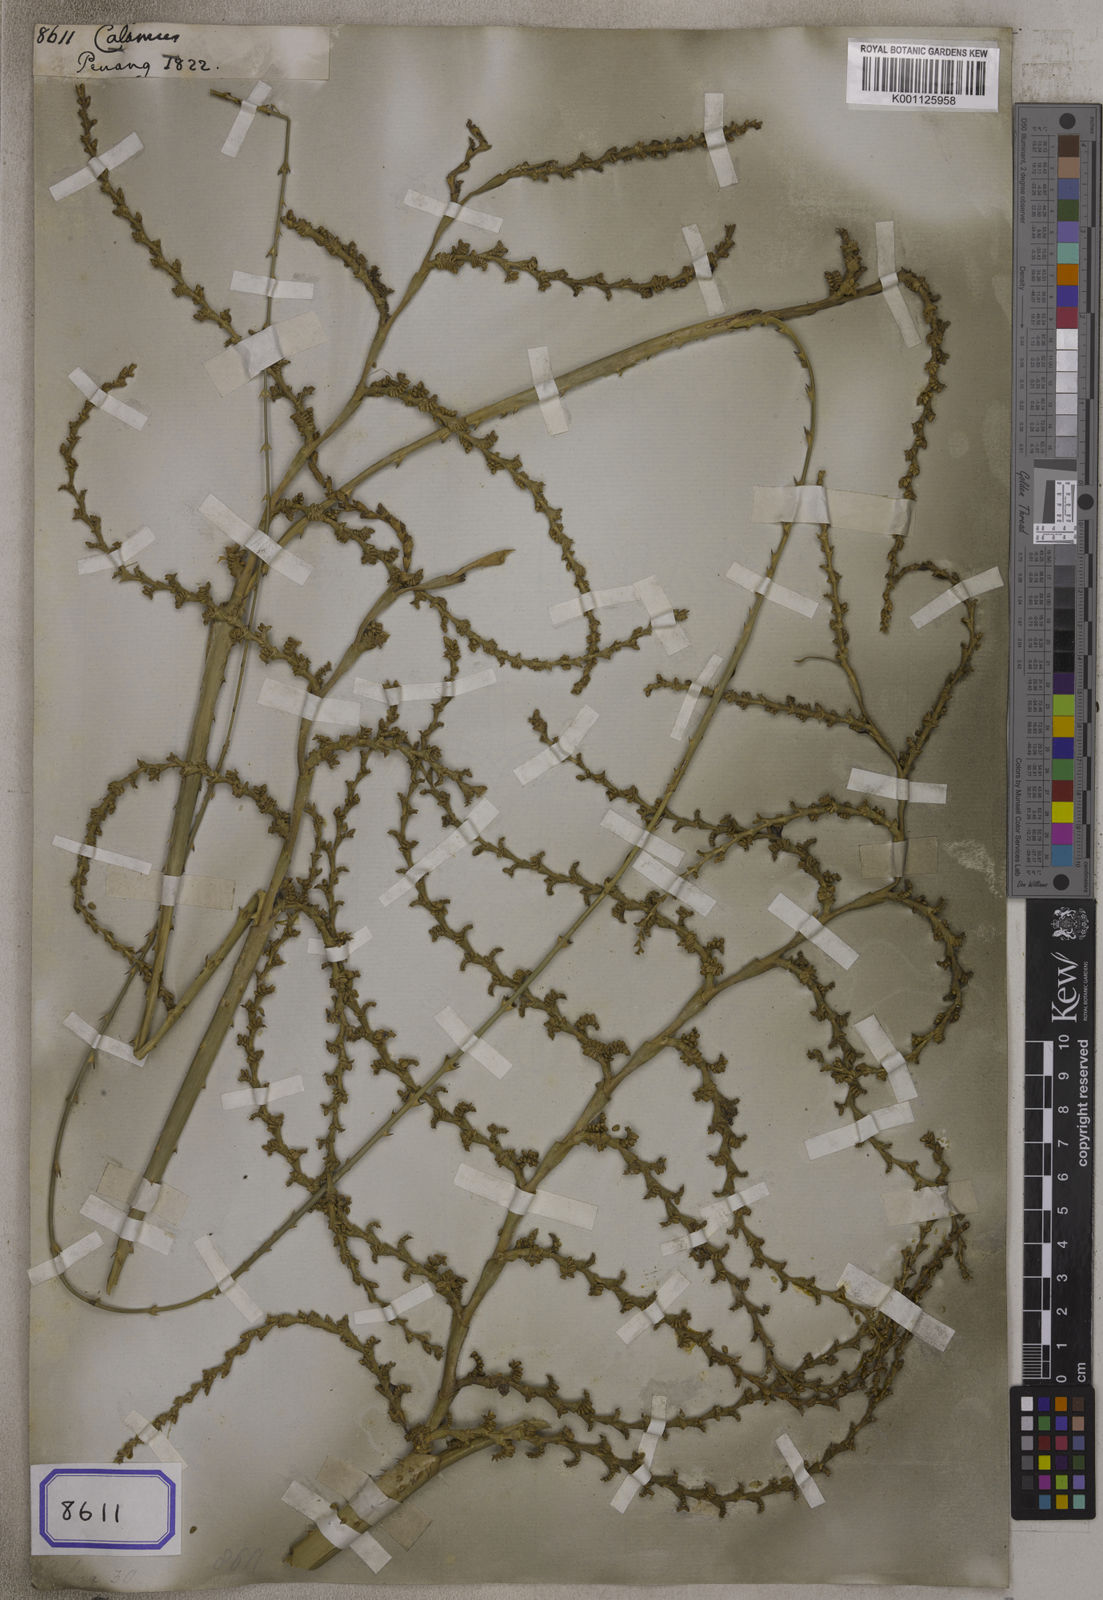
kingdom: Plantae
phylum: Tracheophyta
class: Liliopsida
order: Arecales
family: Arecaceae
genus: Calamus
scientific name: Calamus
